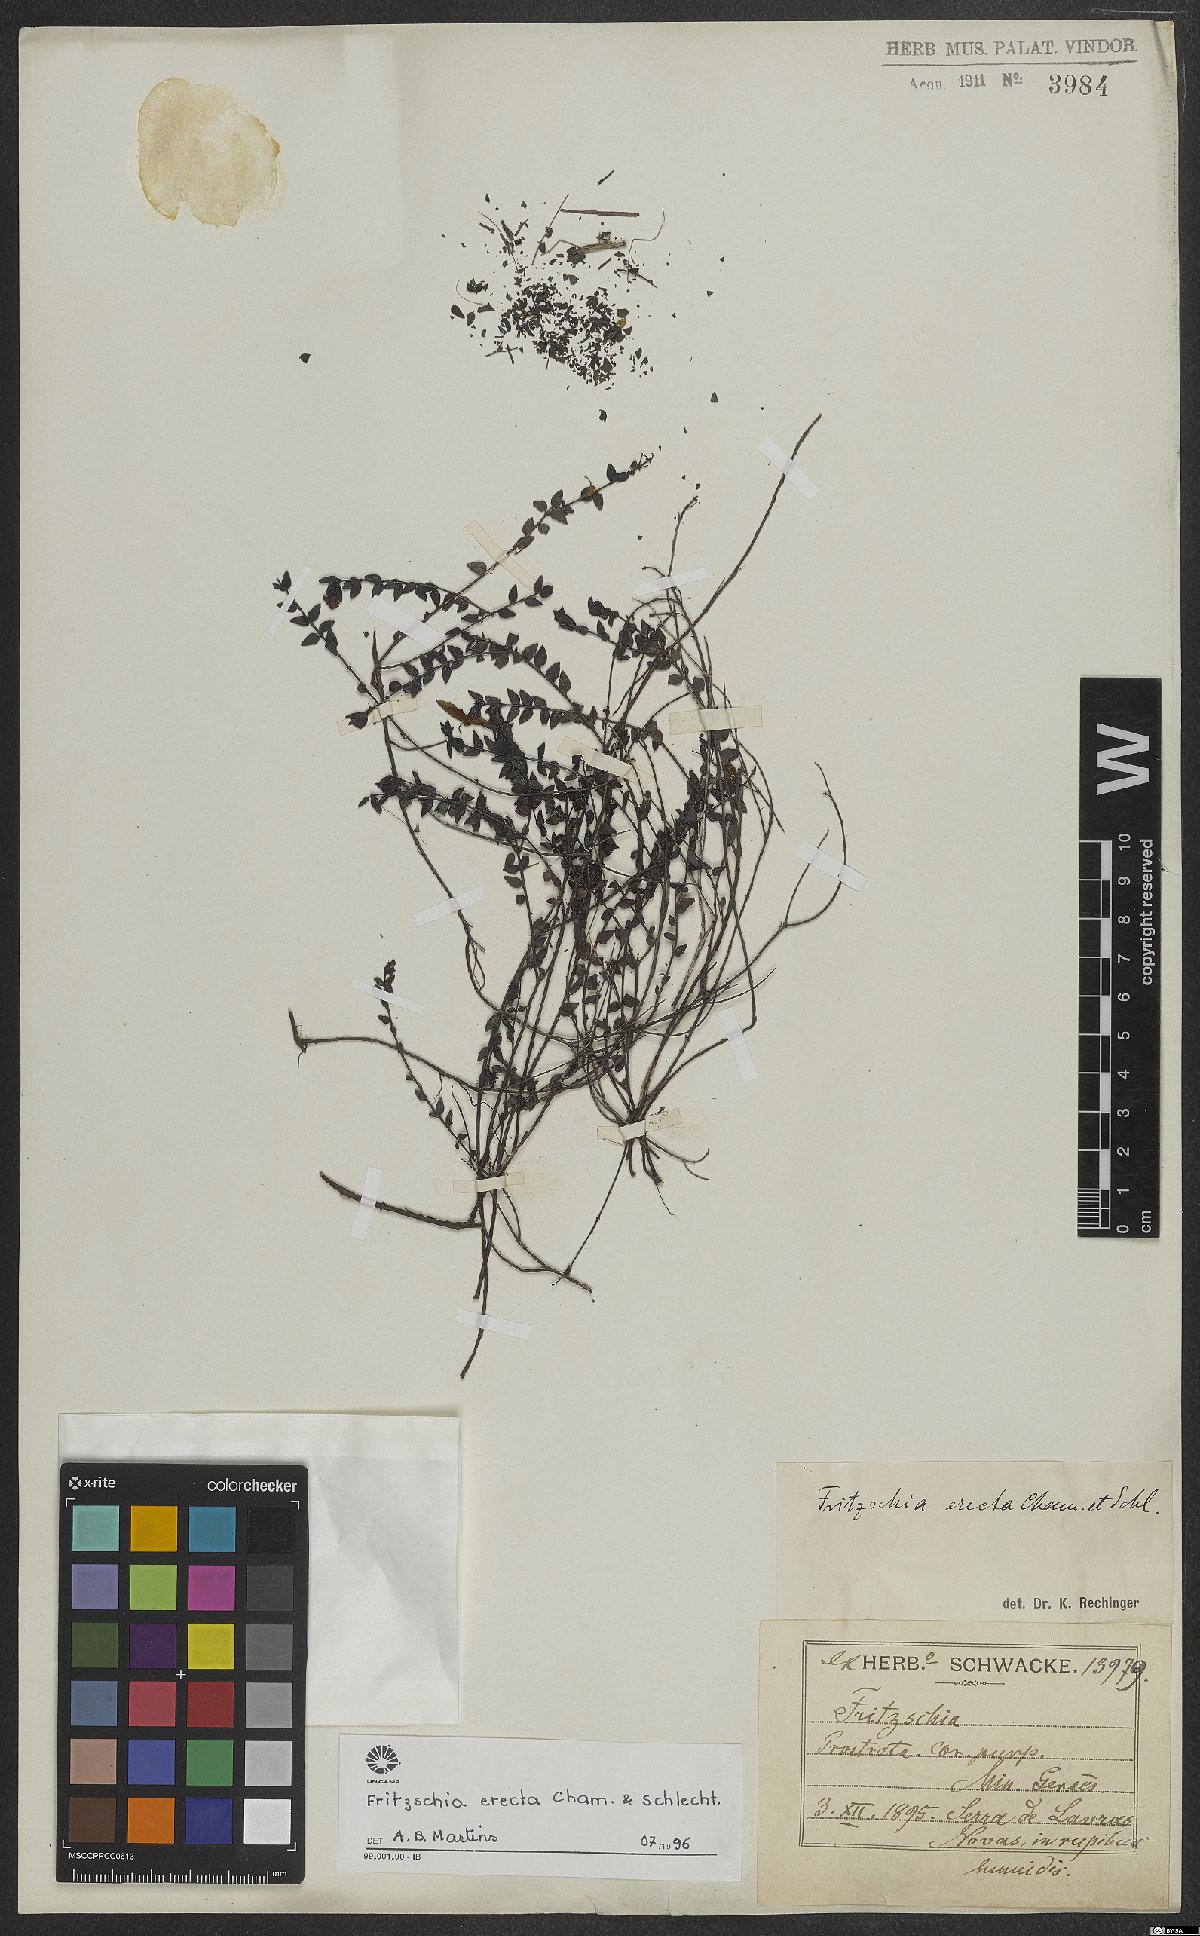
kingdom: Plantae
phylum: Tracheophyta
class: Magnoliopsida
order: Myrtales
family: Melastomataceae
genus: Fritzschia
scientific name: Fritzschia erecta
